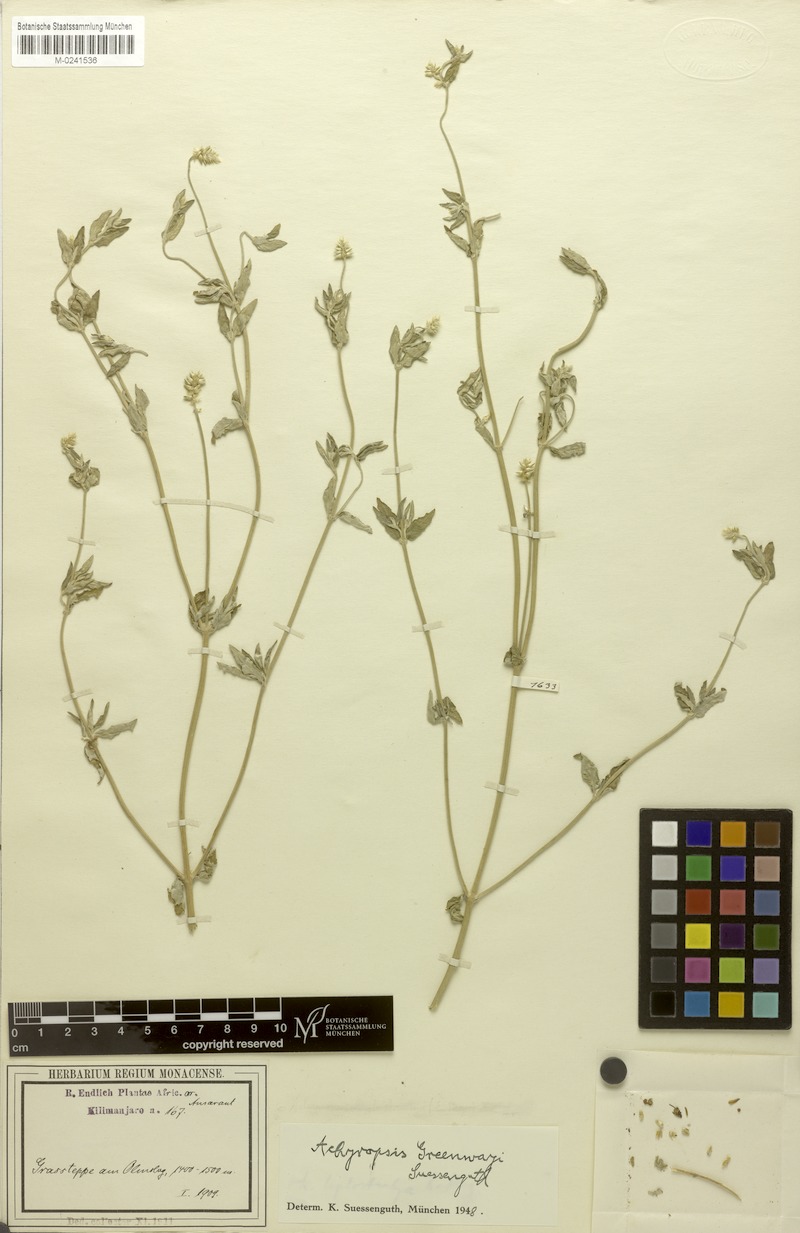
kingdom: Plantae
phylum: Tracheophyta
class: Magnoliopsida
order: Caryophyllales
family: Amaranthaceae
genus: Achyropsis
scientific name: Achyropsis fruticulosa
